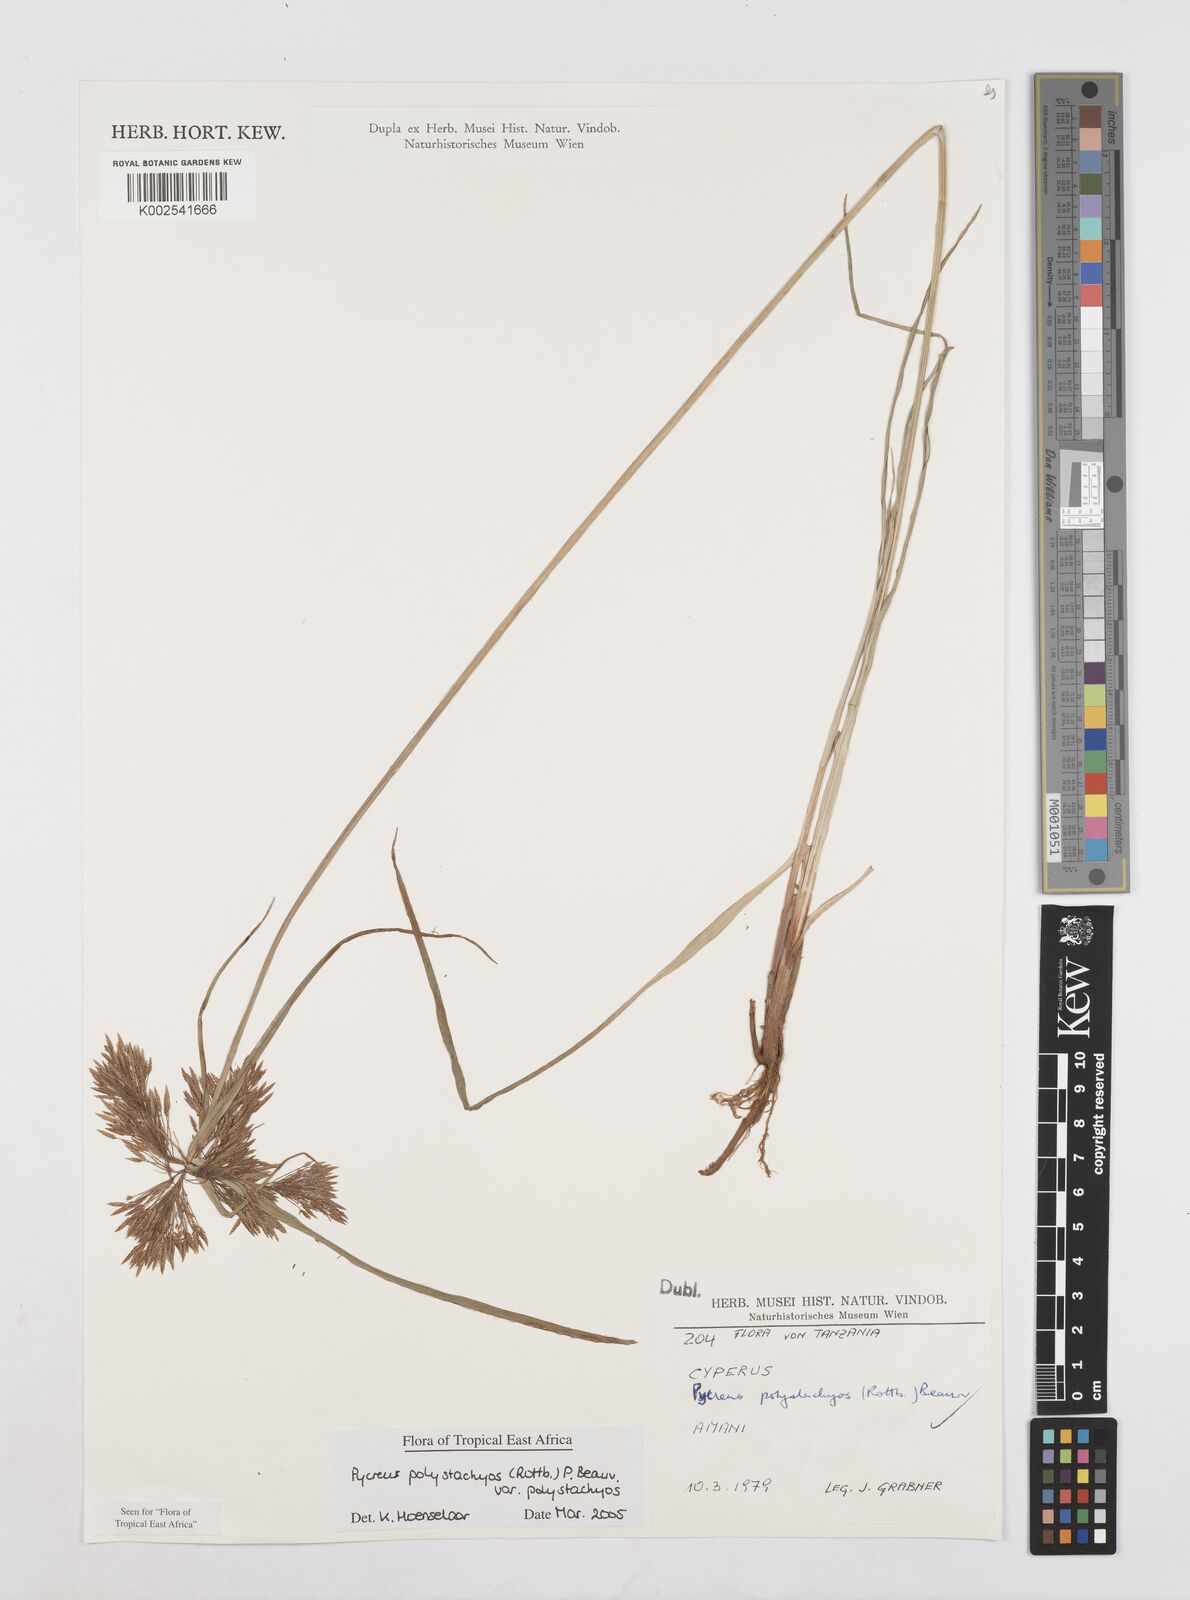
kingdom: Plantae
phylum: Tracheophyta
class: Liliopsida
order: Poales
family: Cyperaceae
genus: Cyperus
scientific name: Cyperus polystachyos
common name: Bunchy flat sedge
